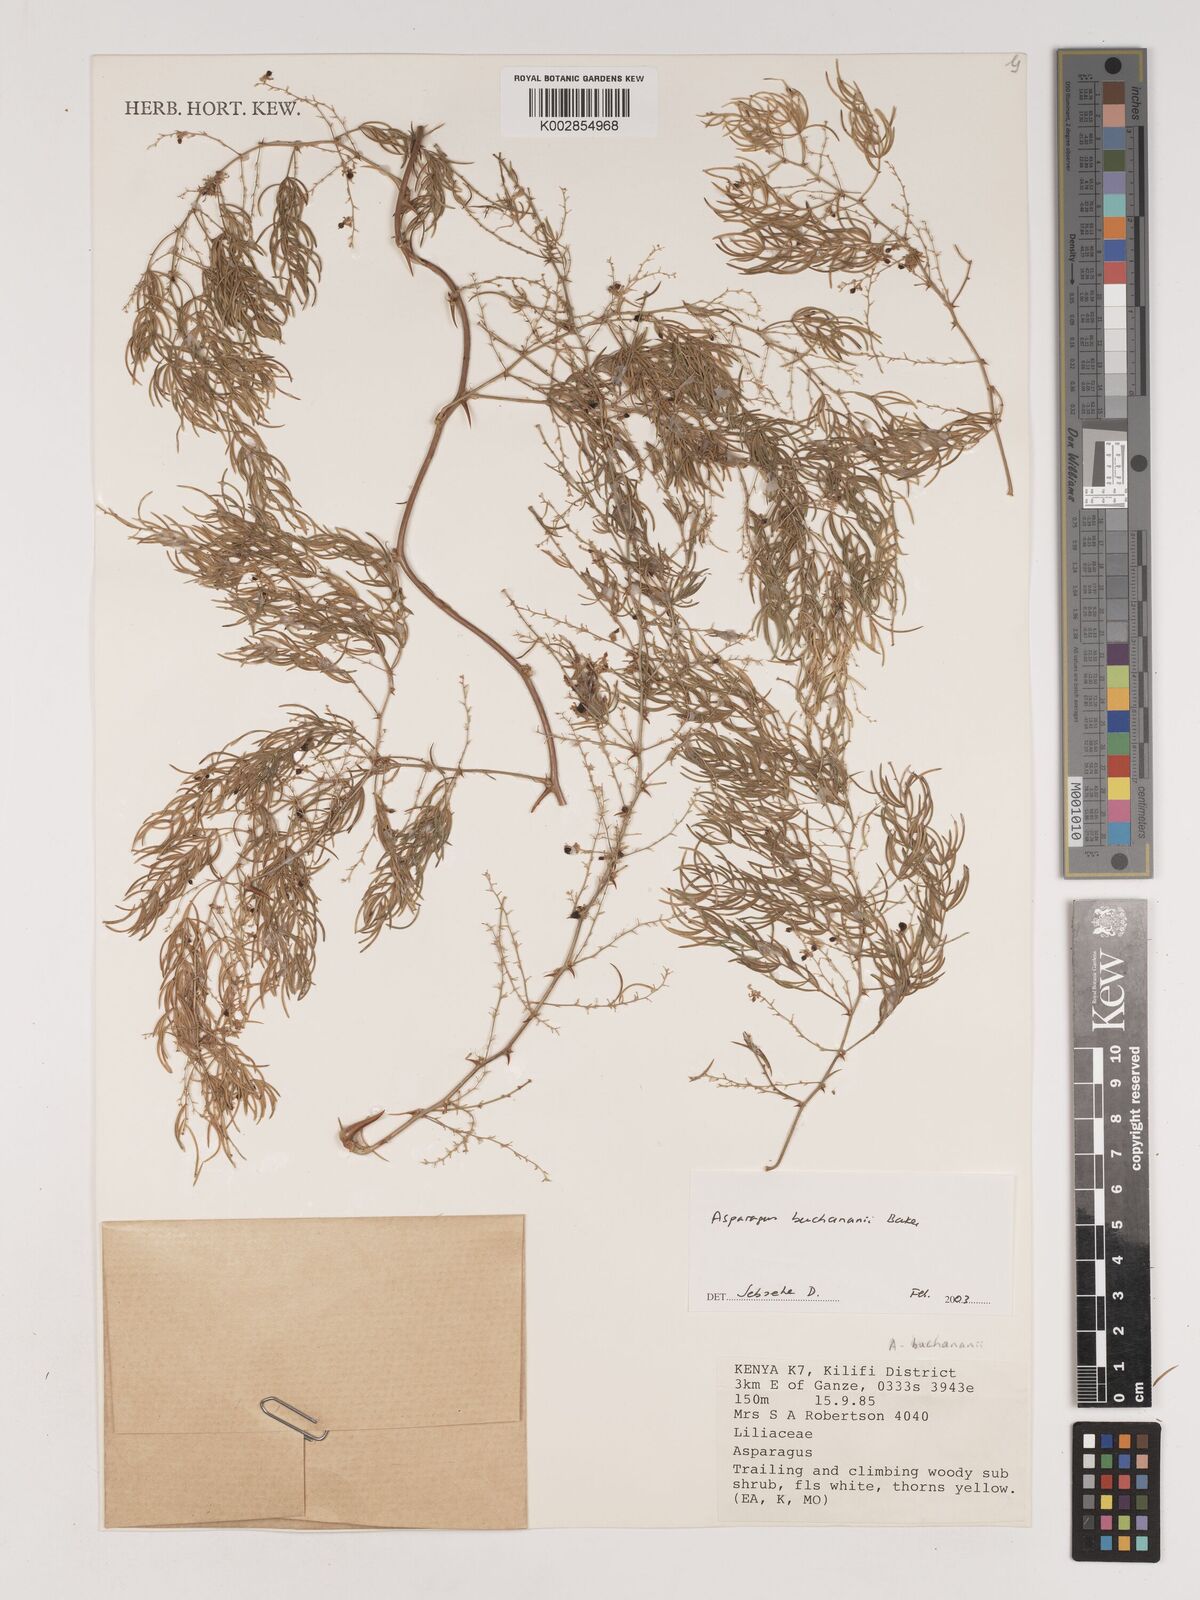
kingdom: Plantae
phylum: Tracheophyta
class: Liliopsida
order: Asparagales
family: Asparagaceae
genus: Asparagus
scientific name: Asparagus buchananii
